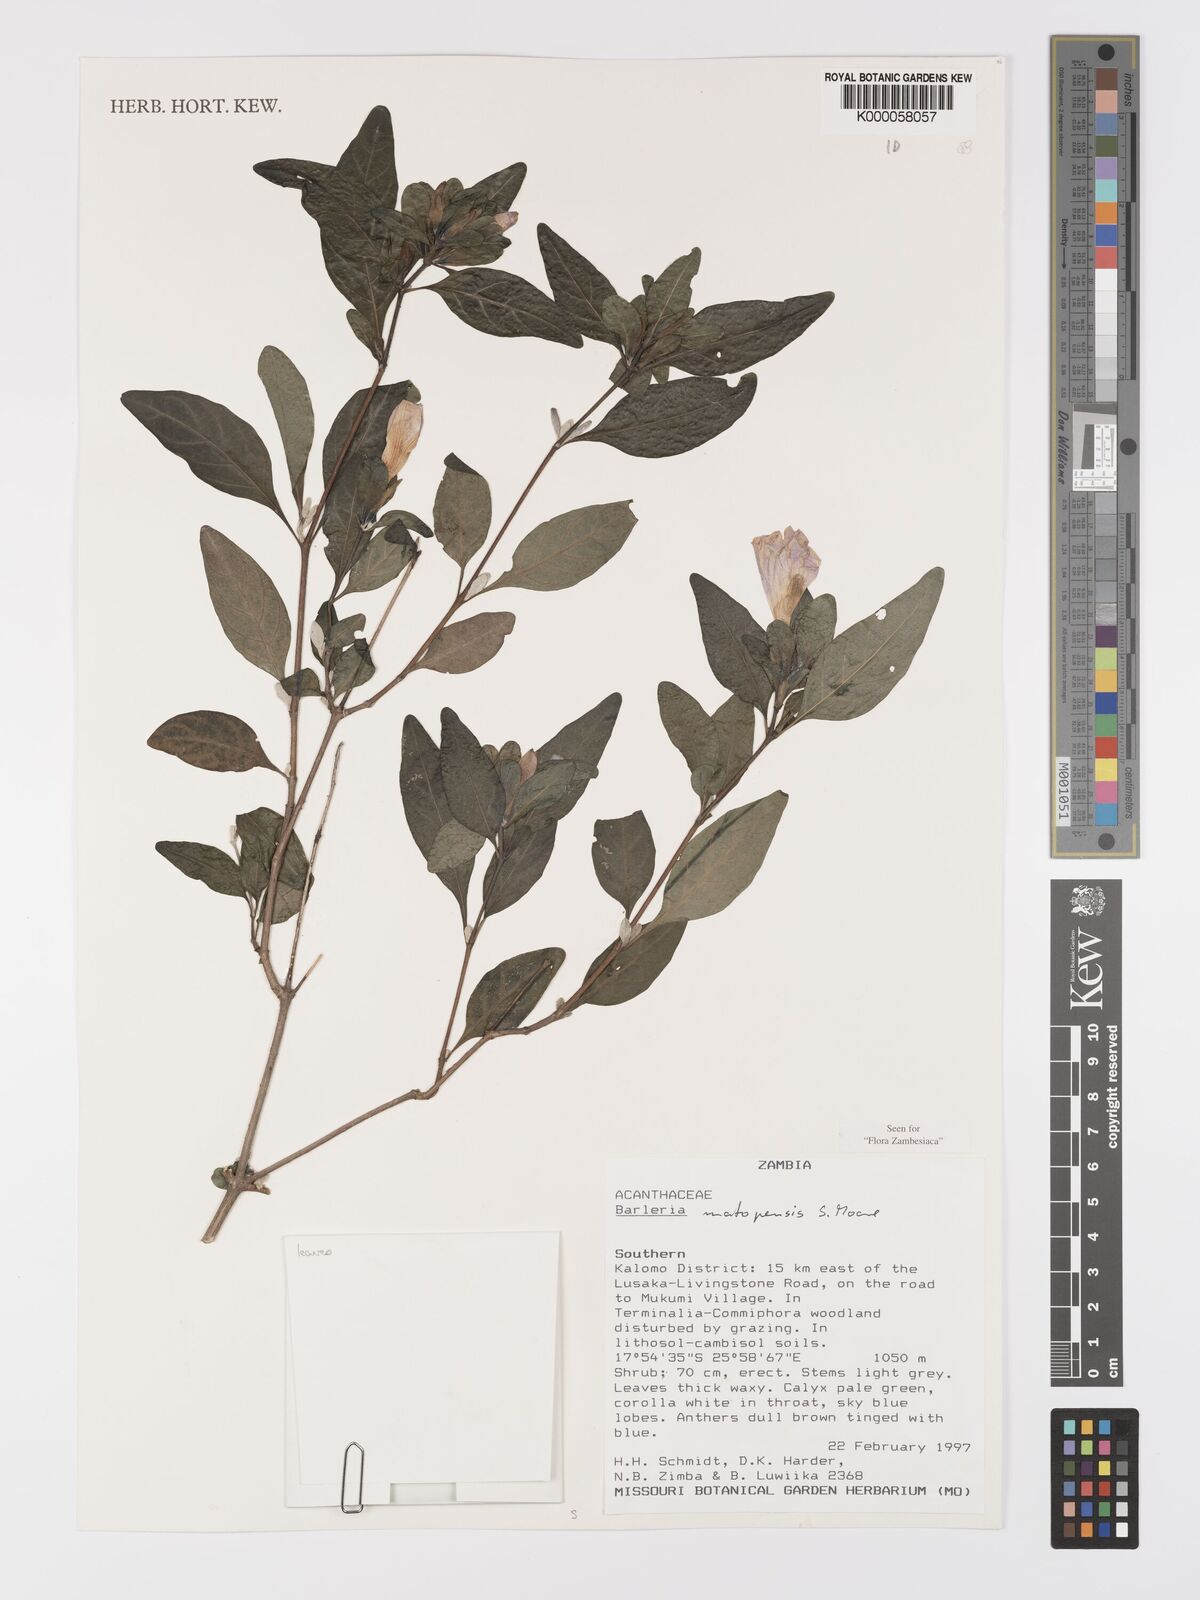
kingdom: Plantae
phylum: Tracheophyta
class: Magnoliopsida
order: Lamiales
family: Acanthaceae
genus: Barleria
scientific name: Barleria matopensis
